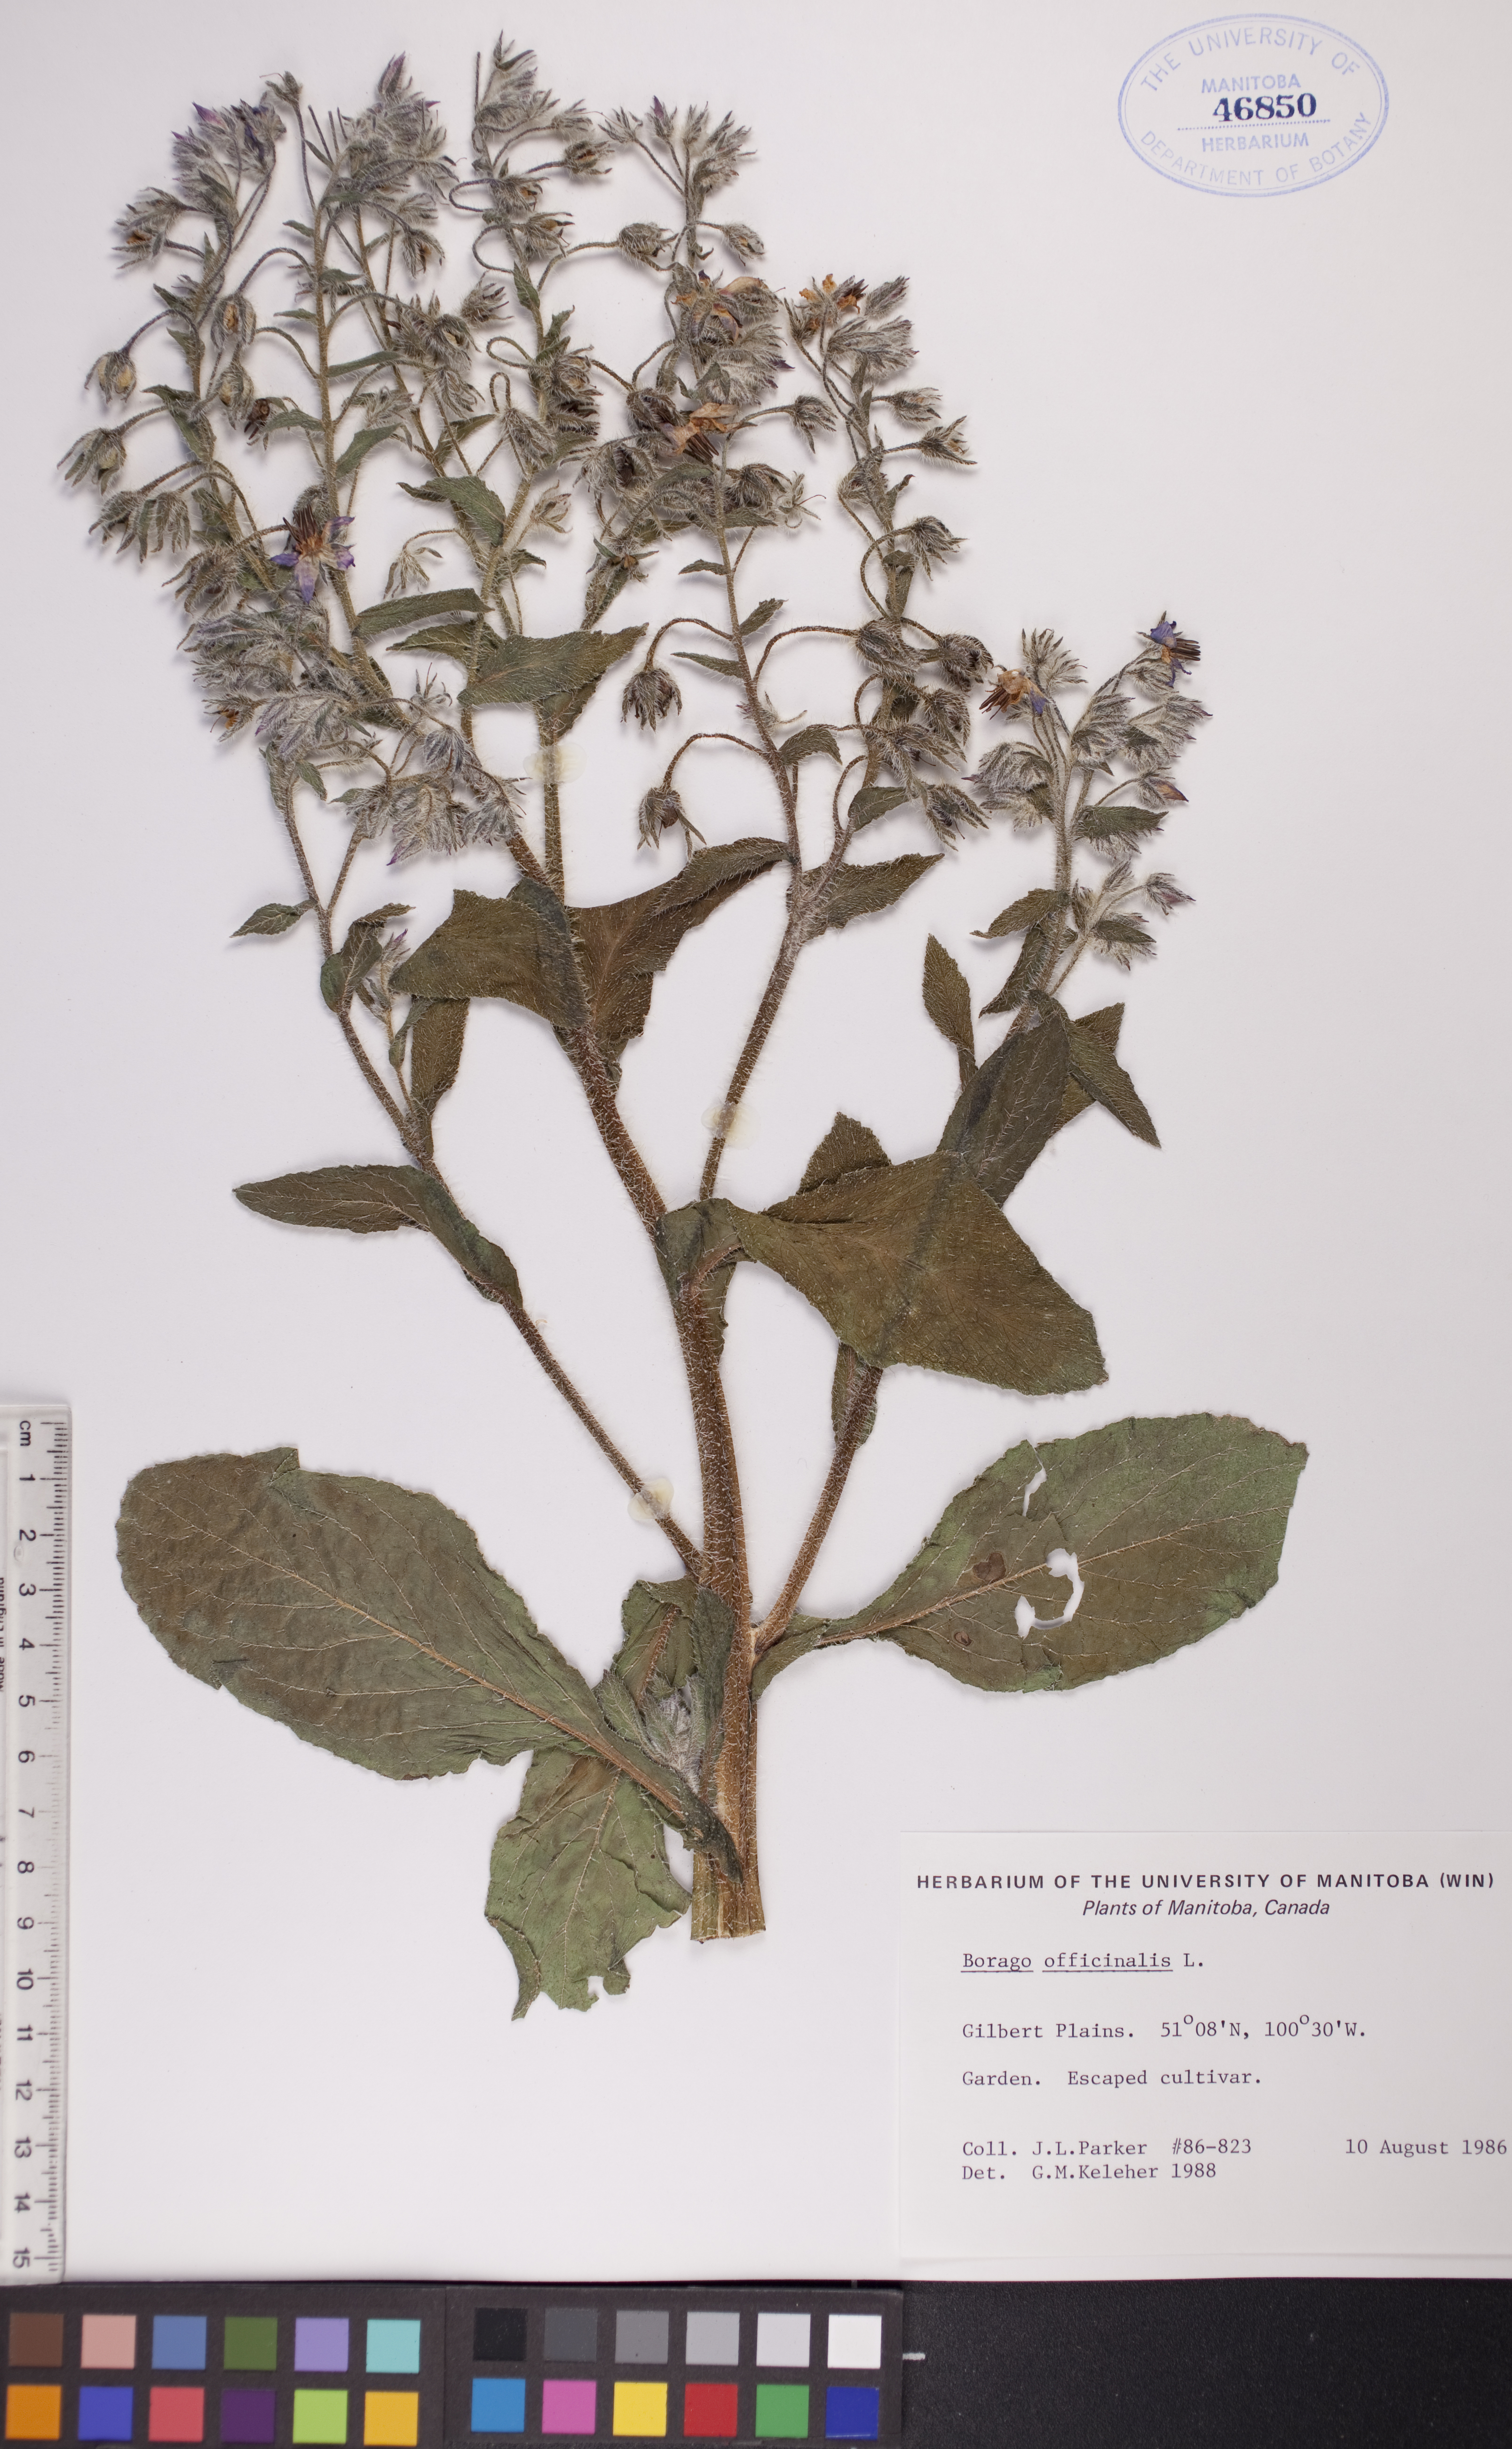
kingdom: Plantae
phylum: Tracheophyta
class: Magnoliopsida
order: Boraginales
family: Boraginaceae
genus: Borago
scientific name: Borago officinalis
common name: Borage
